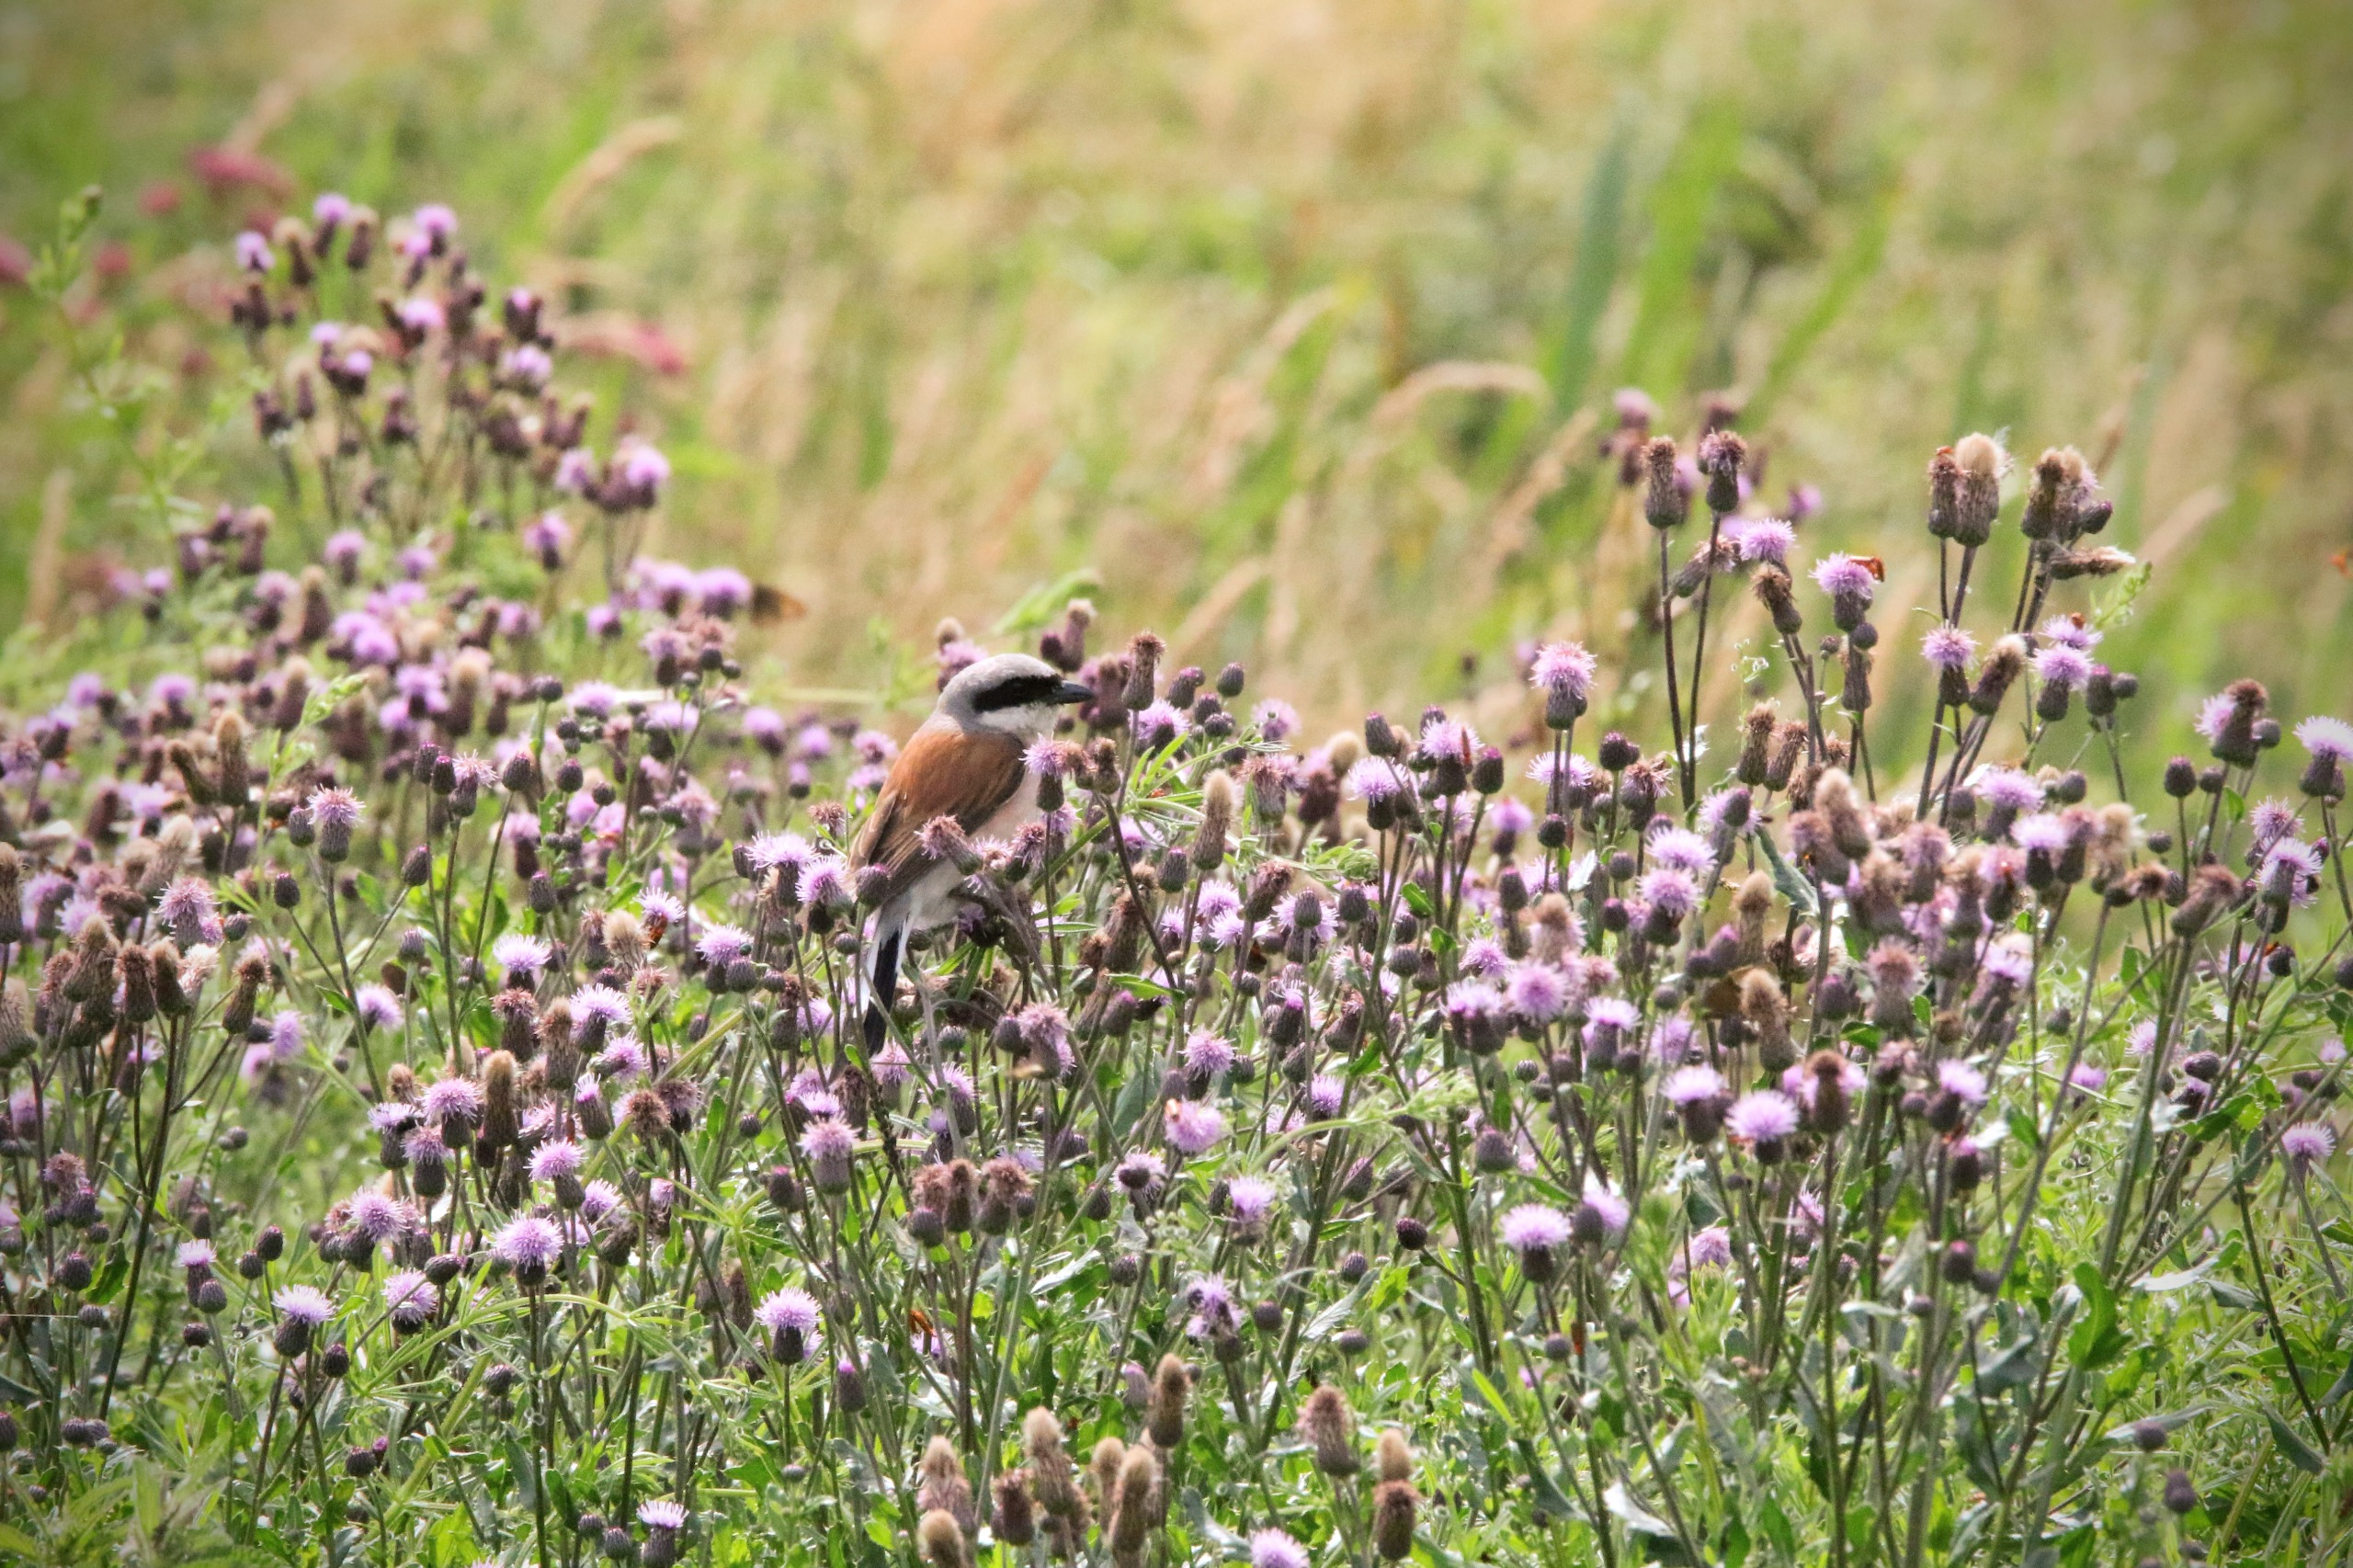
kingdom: Animalia
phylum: Chordata
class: Aves
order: Passeriformes
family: Laniidae
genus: Lanius
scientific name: Lanius collurio
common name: Rødrygget tornskade
